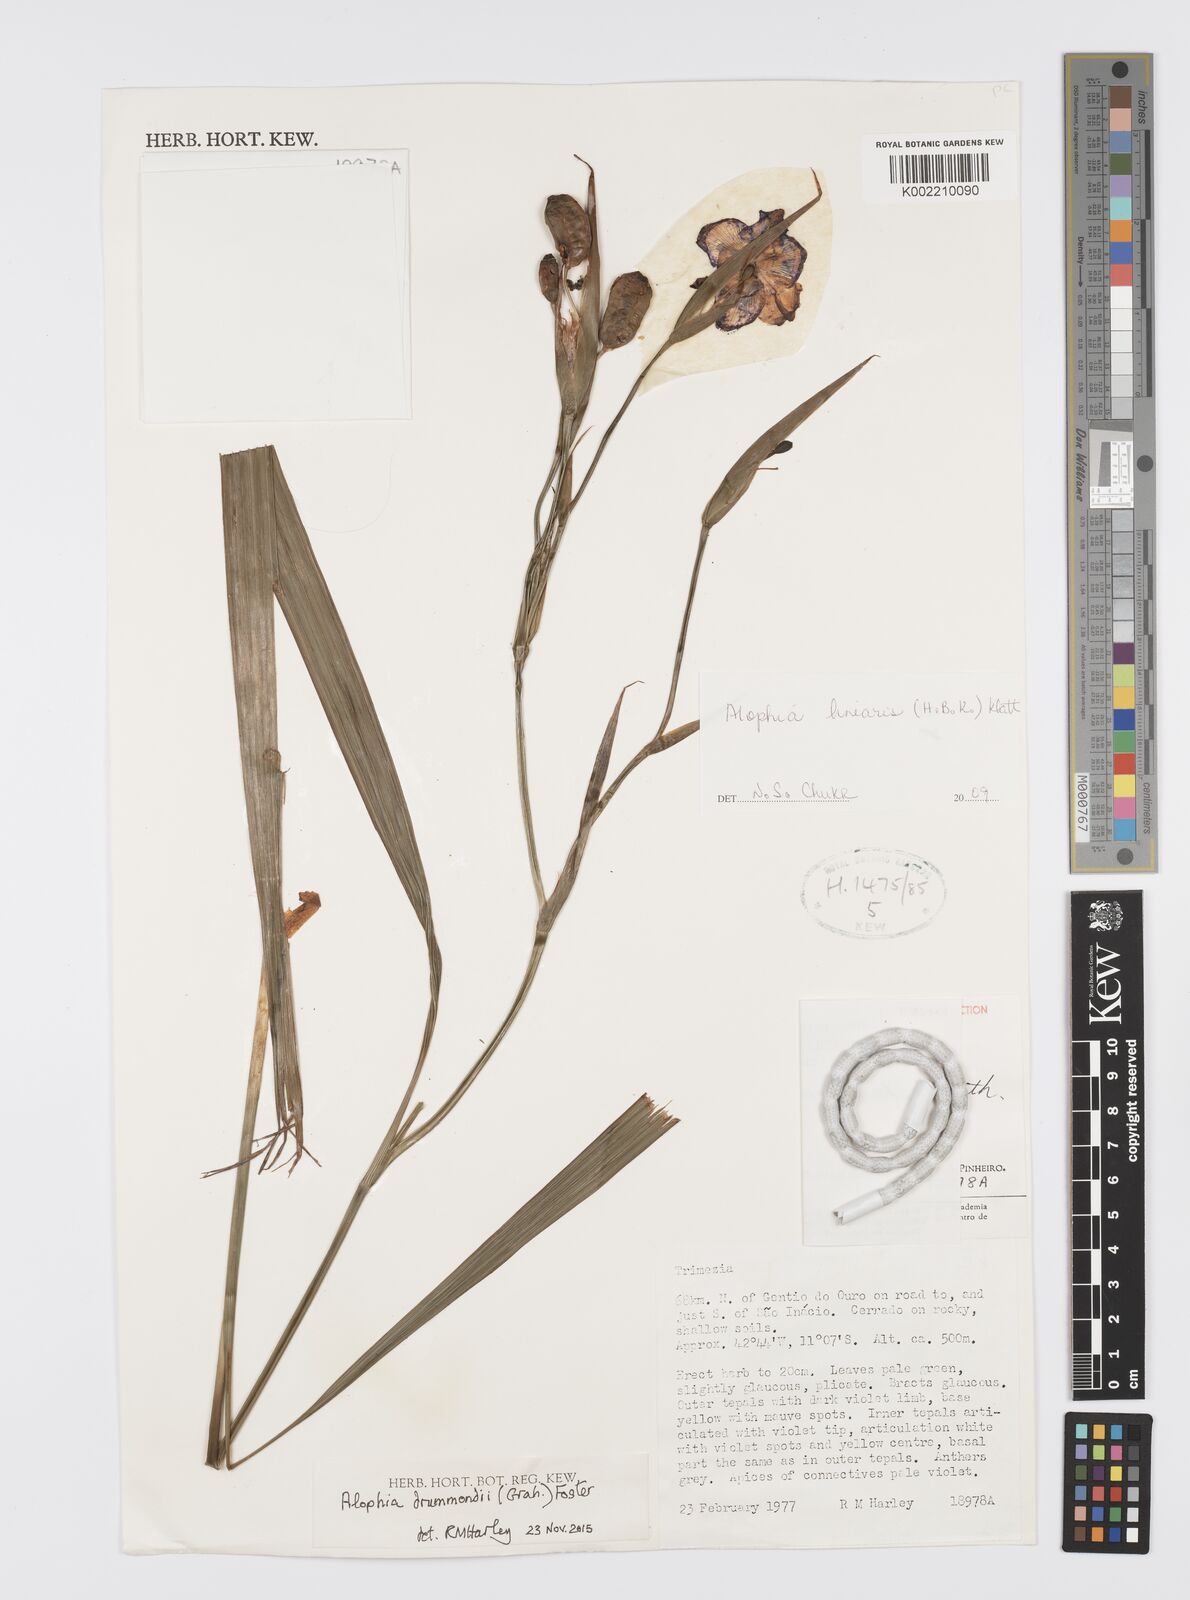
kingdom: Plantae
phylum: Tracheophyta
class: Liliopsida
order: Asparagales
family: Iridaceae
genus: Larentia
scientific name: Larentia linearis
